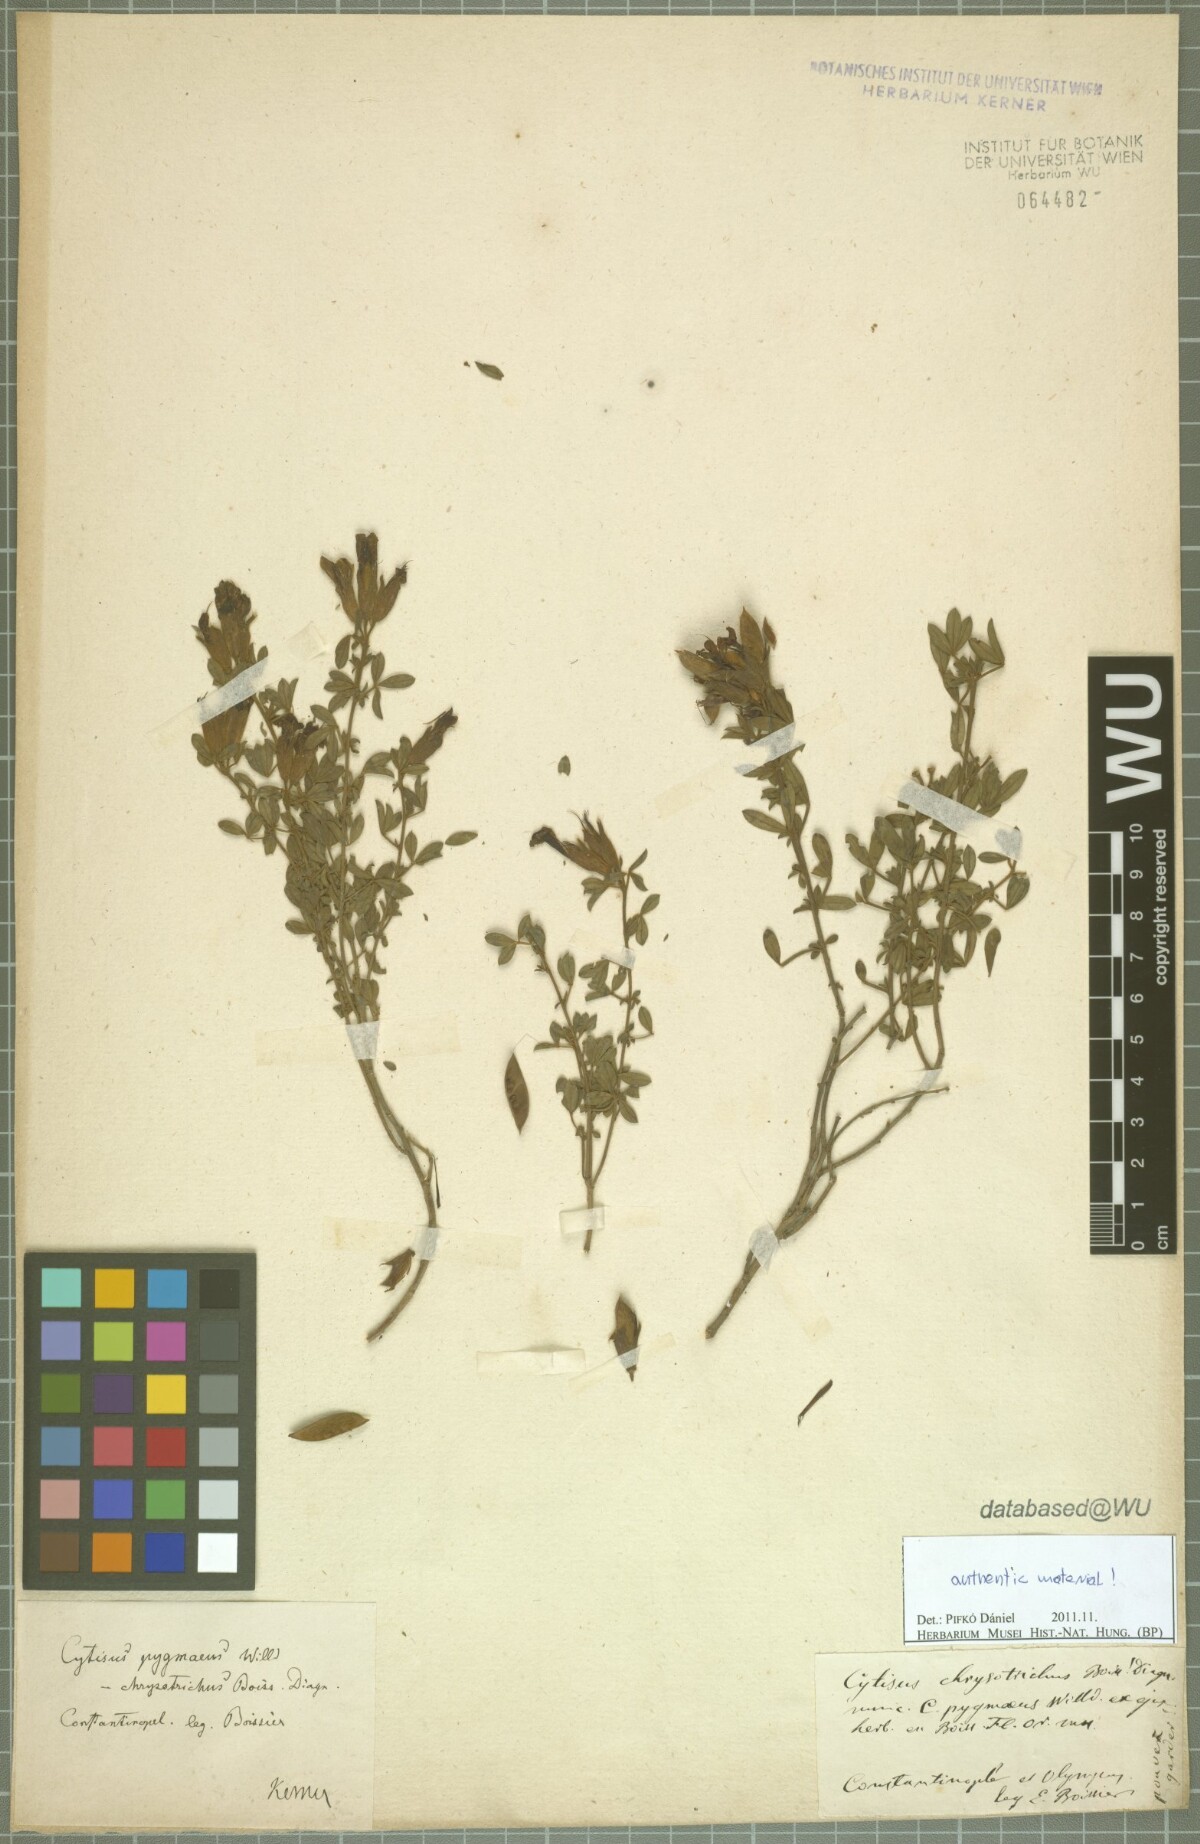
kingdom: Plantae
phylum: Tracheophyta
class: Magnoliopsida
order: Fabales
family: Fabaceae
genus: Chamaecytisus
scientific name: Chamaecytisus pygmaeus
